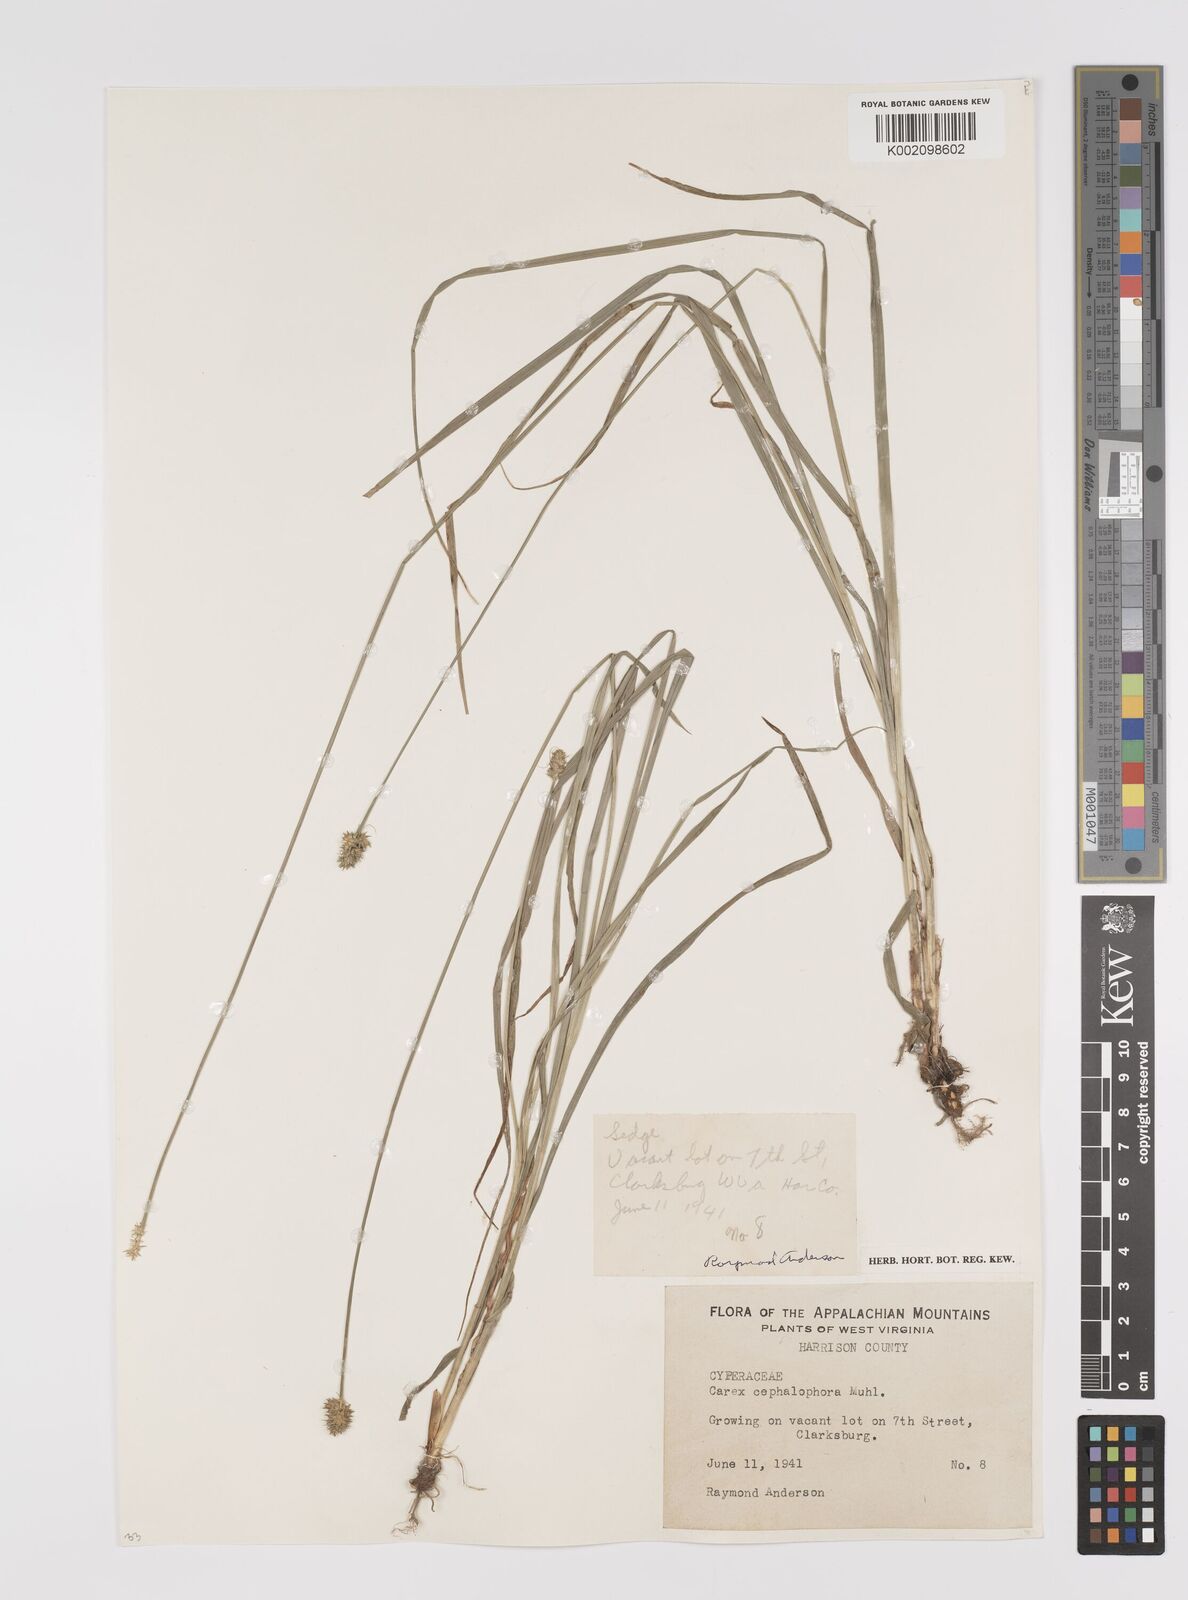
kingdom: Plantae
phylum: Tracheophyta
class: Liliopsida
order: Poales
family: Cyperaceae
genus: Carex
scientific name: Carex cephalophora
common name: Oval-headed sedge
